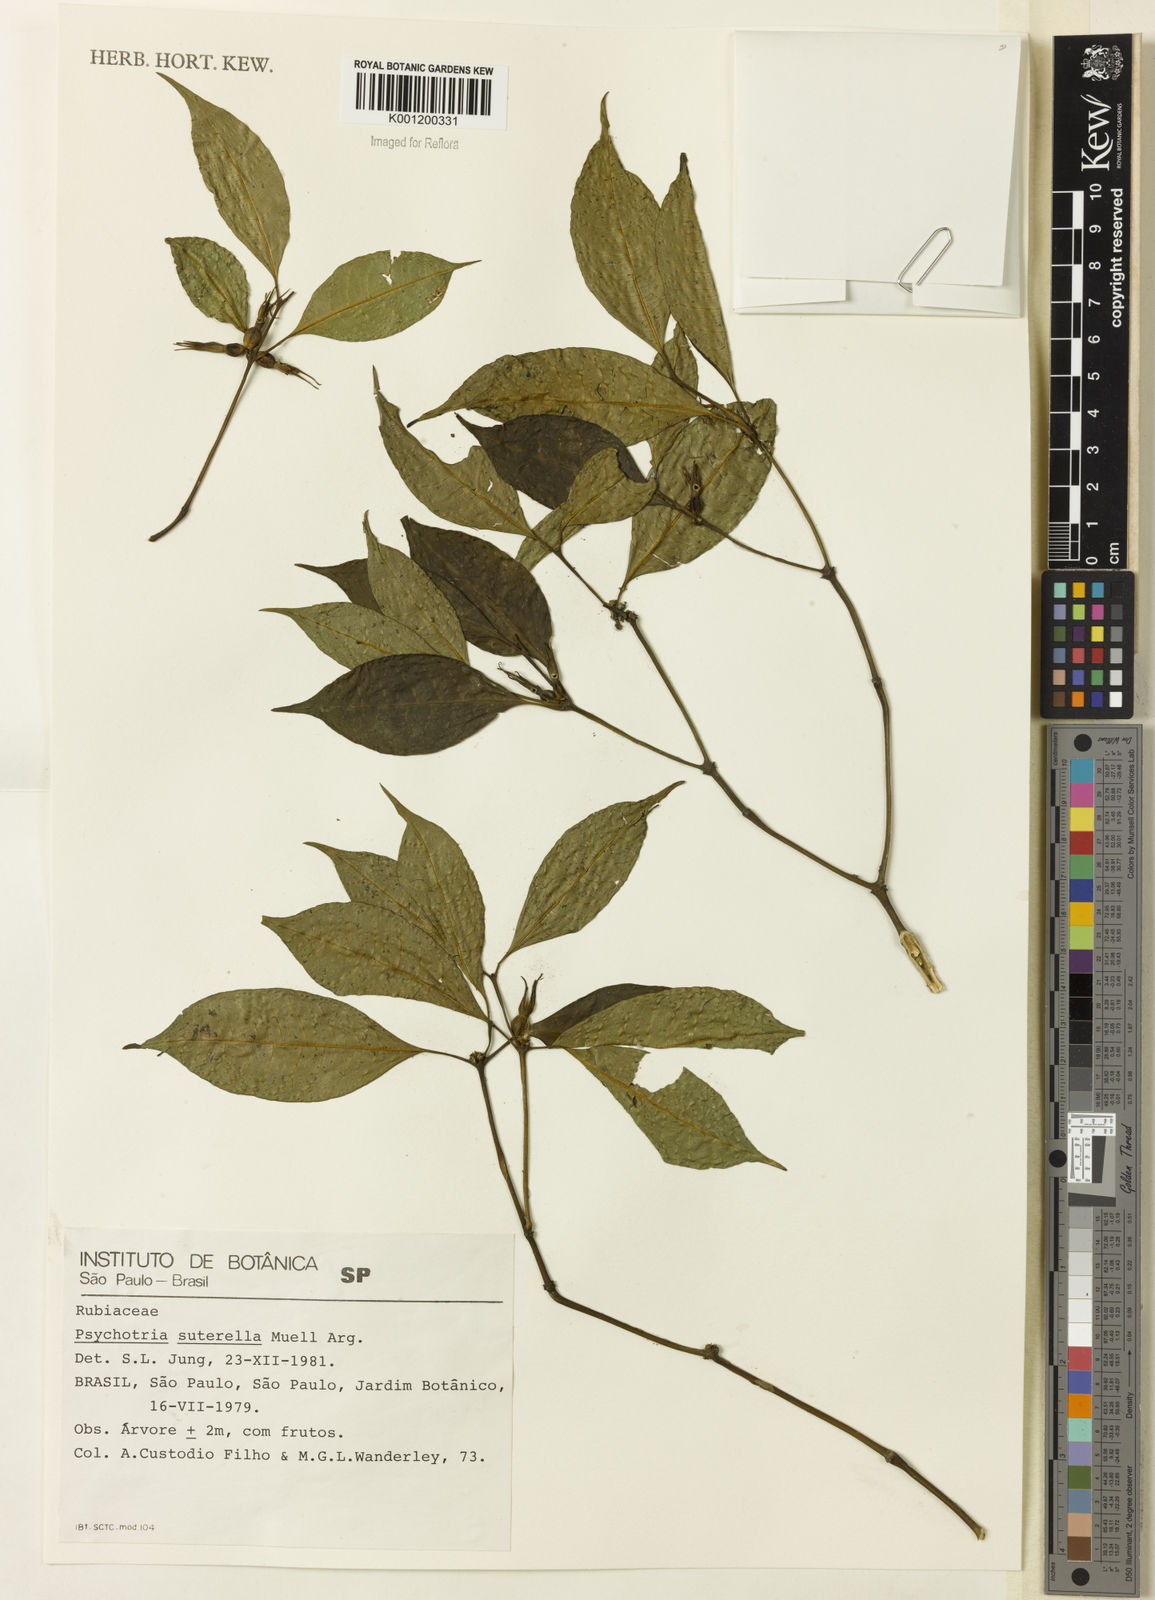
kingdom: Plantae
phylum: Tracheophyta
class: Magnoliopsida
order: Gentianales
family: Rubiaceae
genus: Psychotria
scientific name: Psychotria
